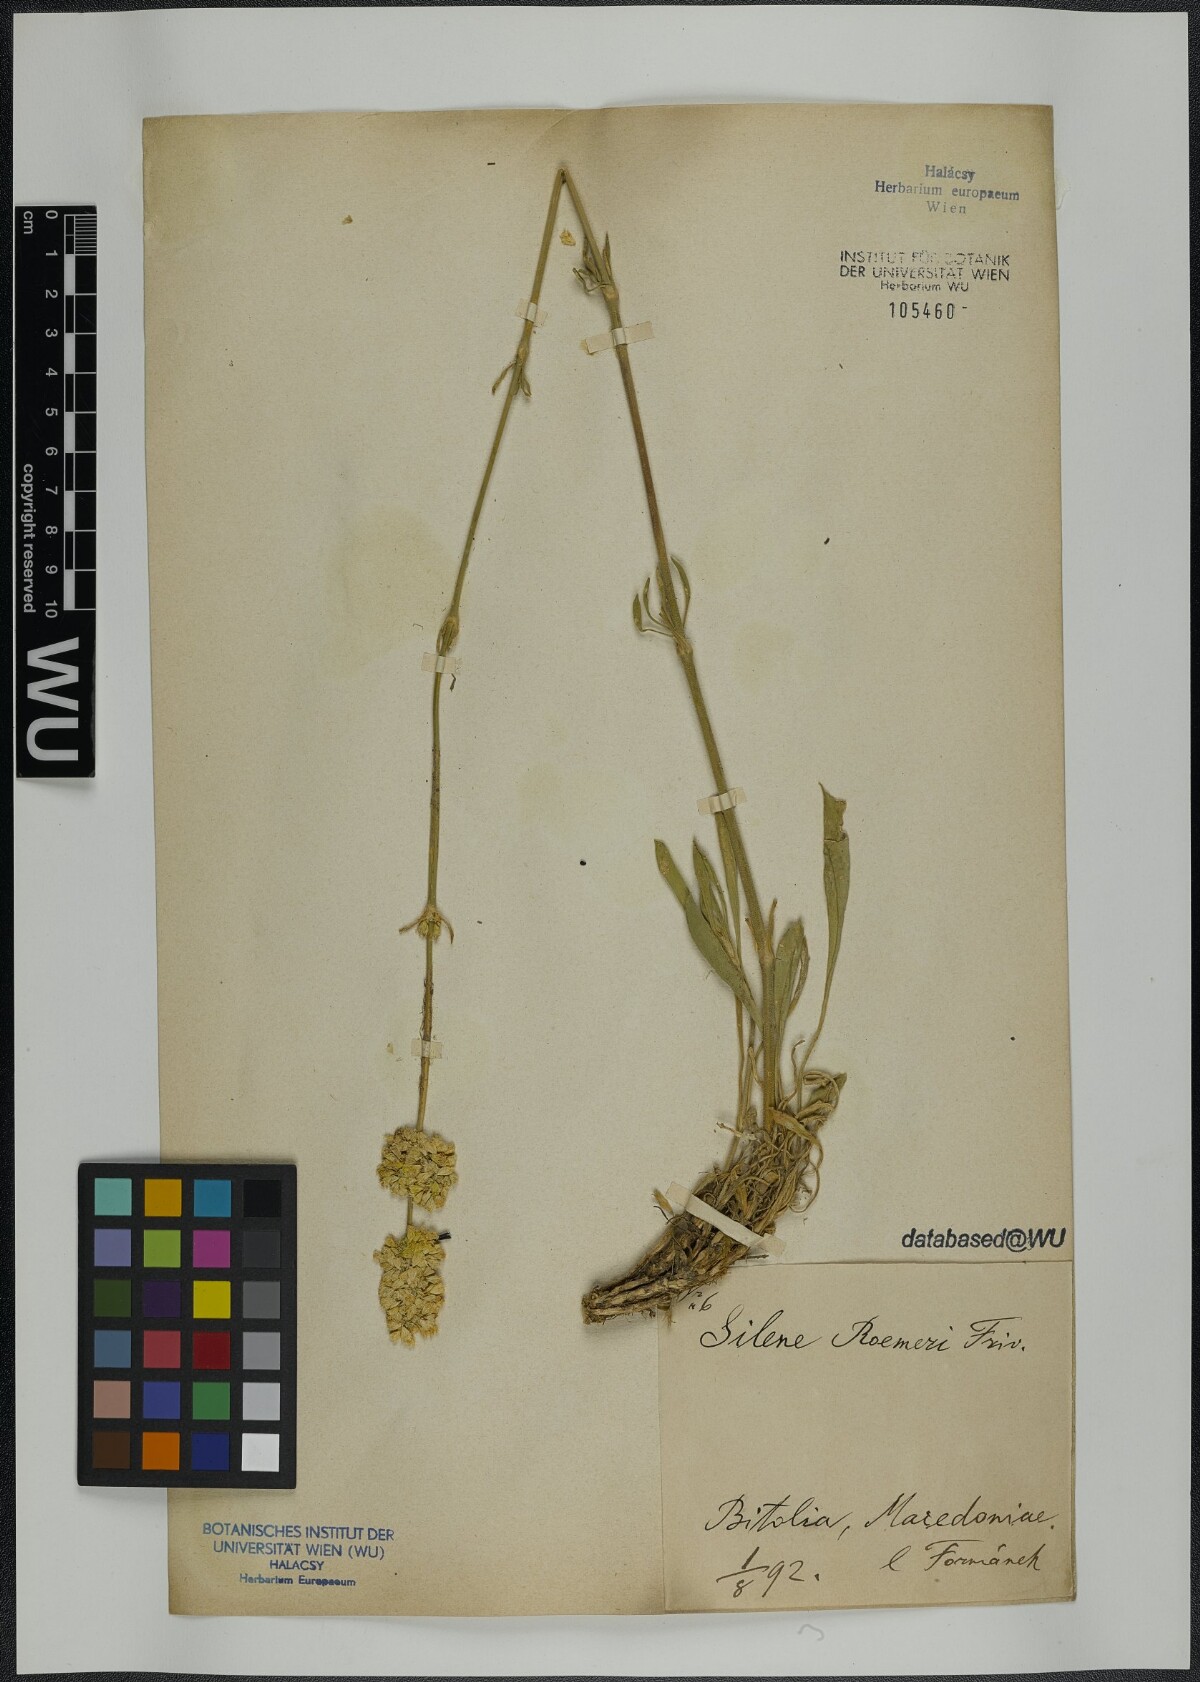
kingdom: Plantae
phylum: Tracheophyta
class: Magnoliopsida
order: Caryophyllales
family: Caryophyllaceae
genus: Silene
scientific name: Silene roemeri
